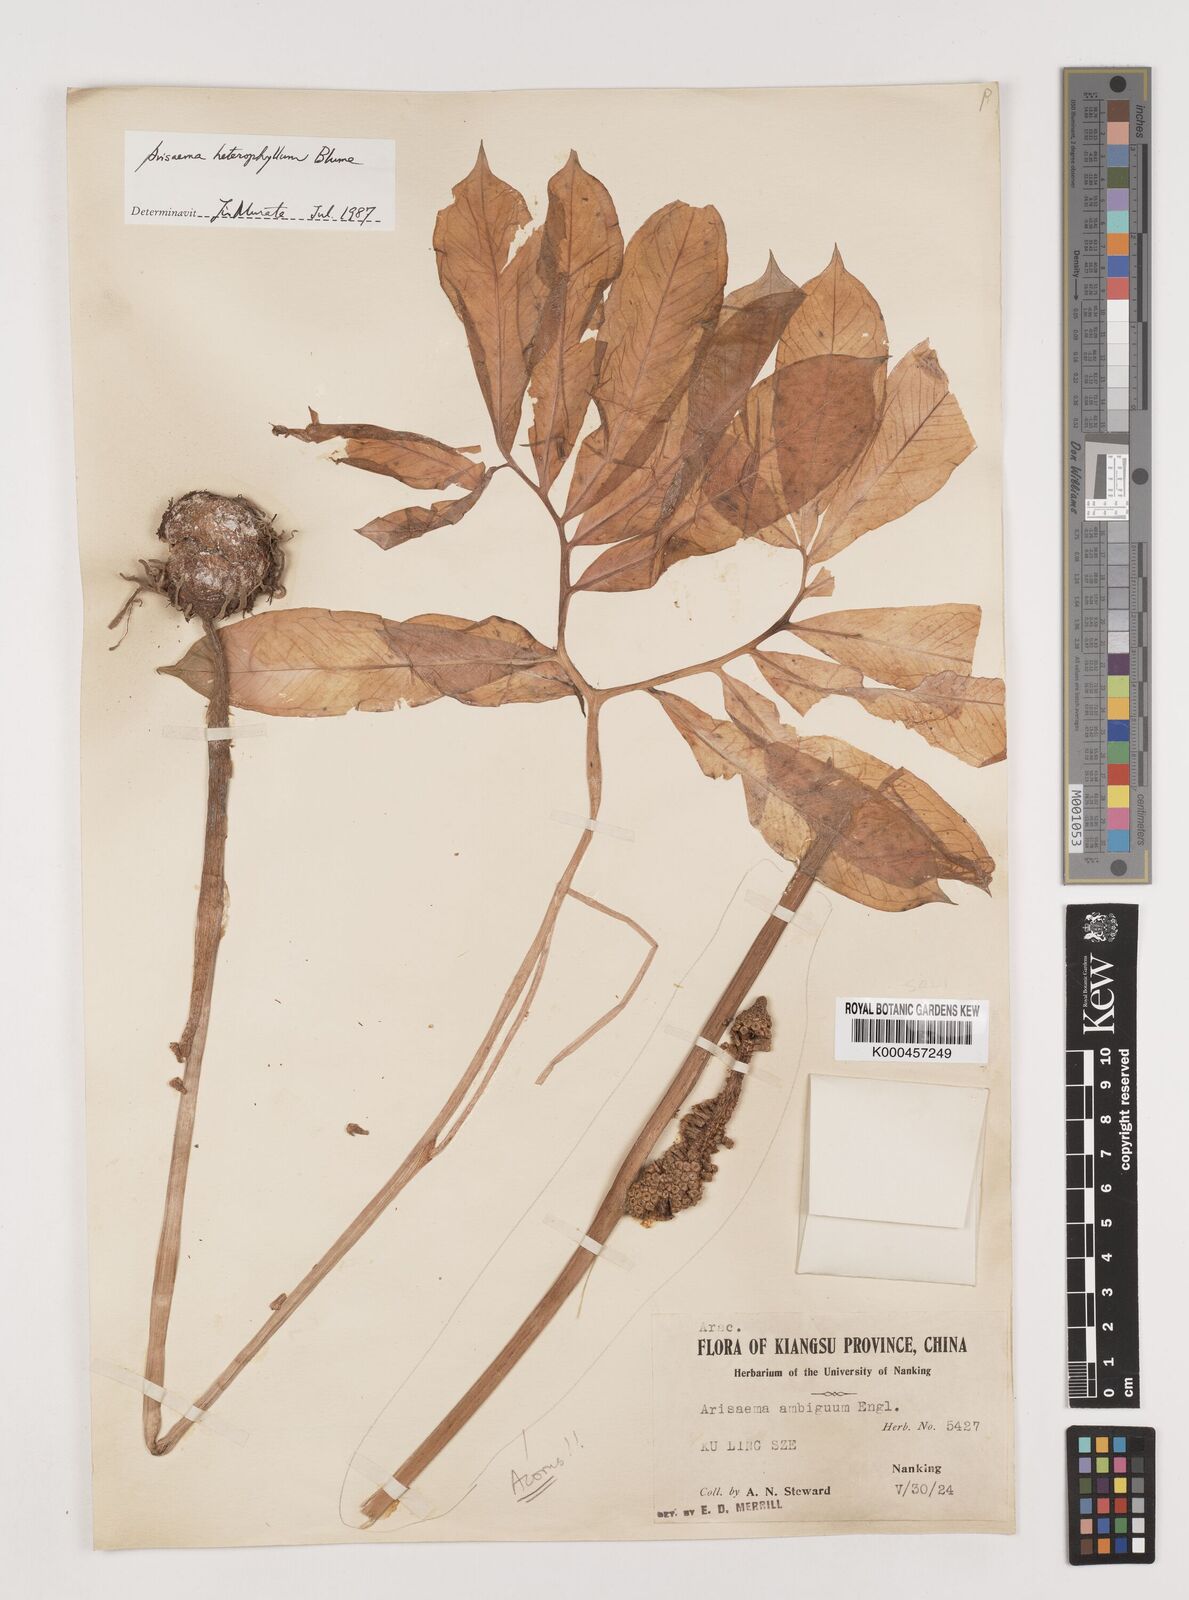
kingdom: Plantae
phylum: Tracheophyta
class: Liliopsida
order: Alismatales
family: Araceae
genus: Arisaema
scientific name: Arisaema heterophyllum
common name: Dancing crane cobra lily
